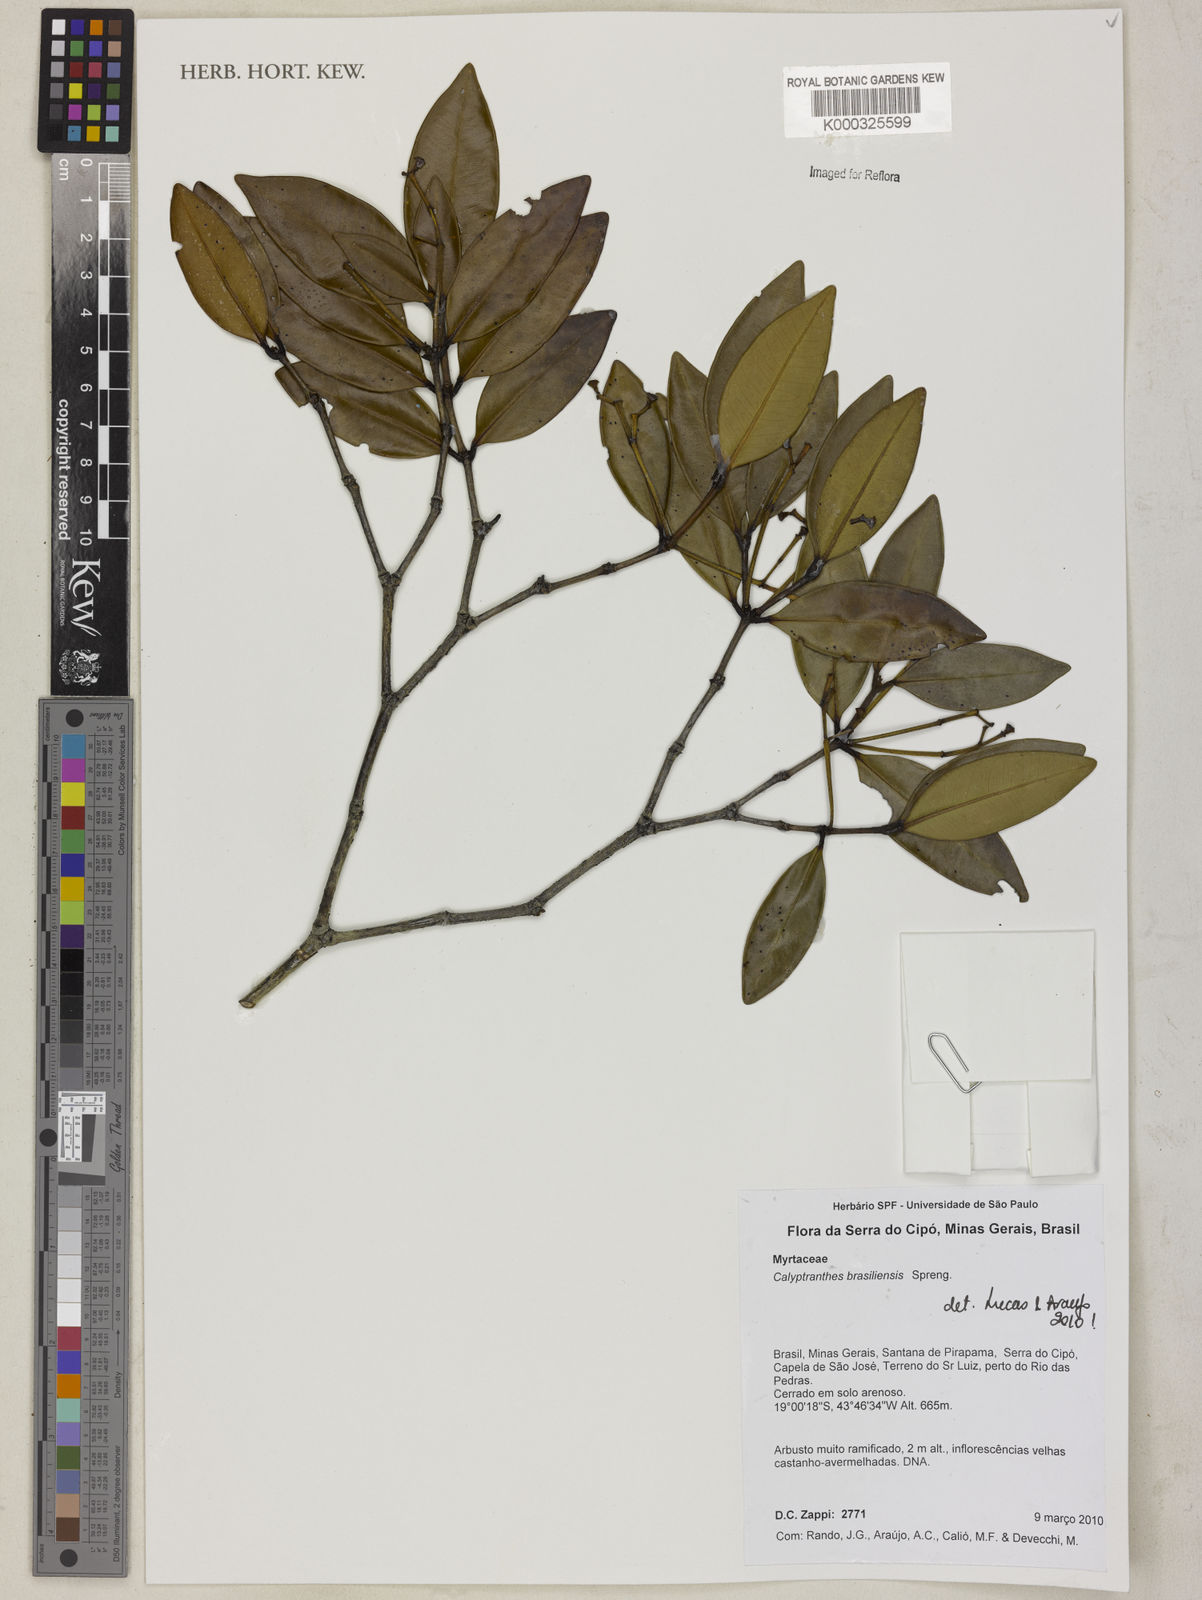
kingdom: Plantae
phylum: Tracheophyta
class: Magnoliopsida
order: Myrtales
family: Myrtaceae
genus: Myrcia
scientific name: Myrcia neobrasiliensis
